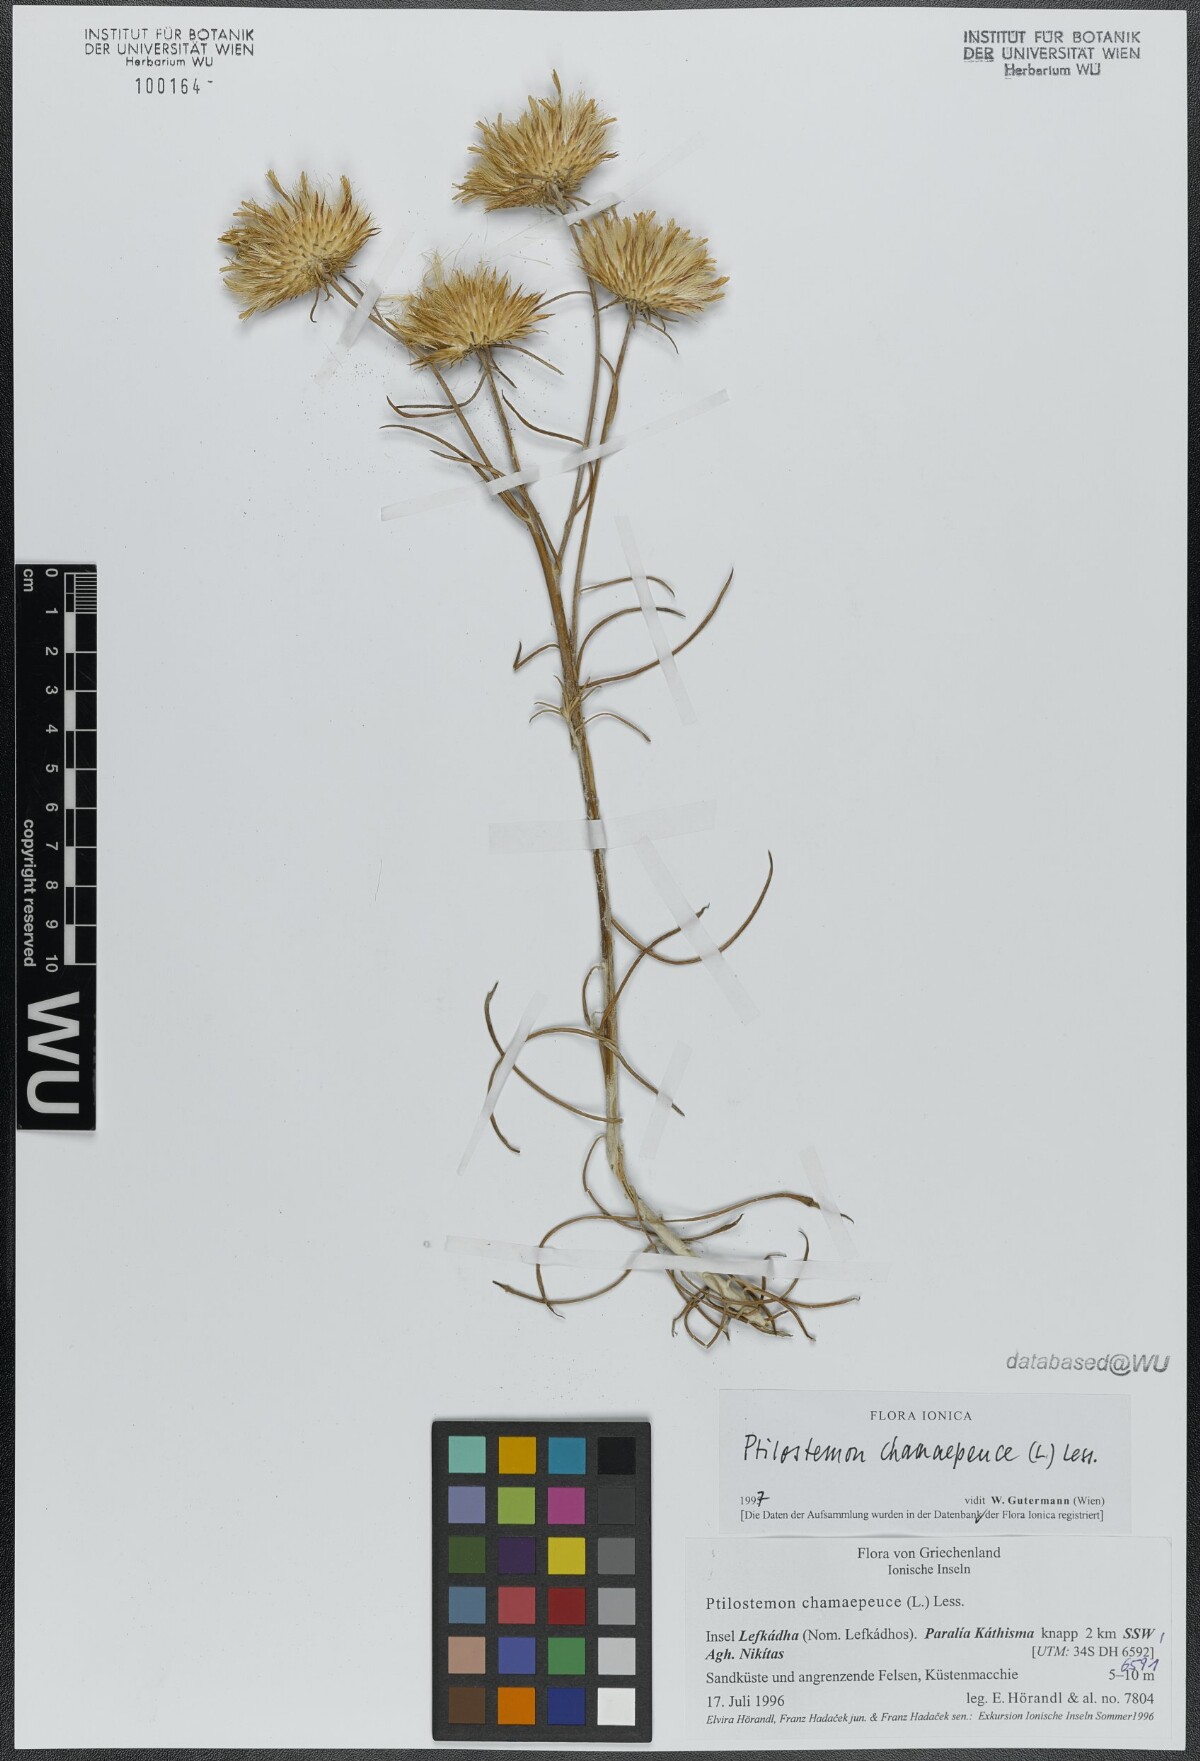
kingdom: Plantae
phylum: Tracheophyta
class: Magnoliopsida
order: Asterales
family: Asteraceae
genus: Ptilostemon
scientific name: Ptilostemon chamaepeuce
